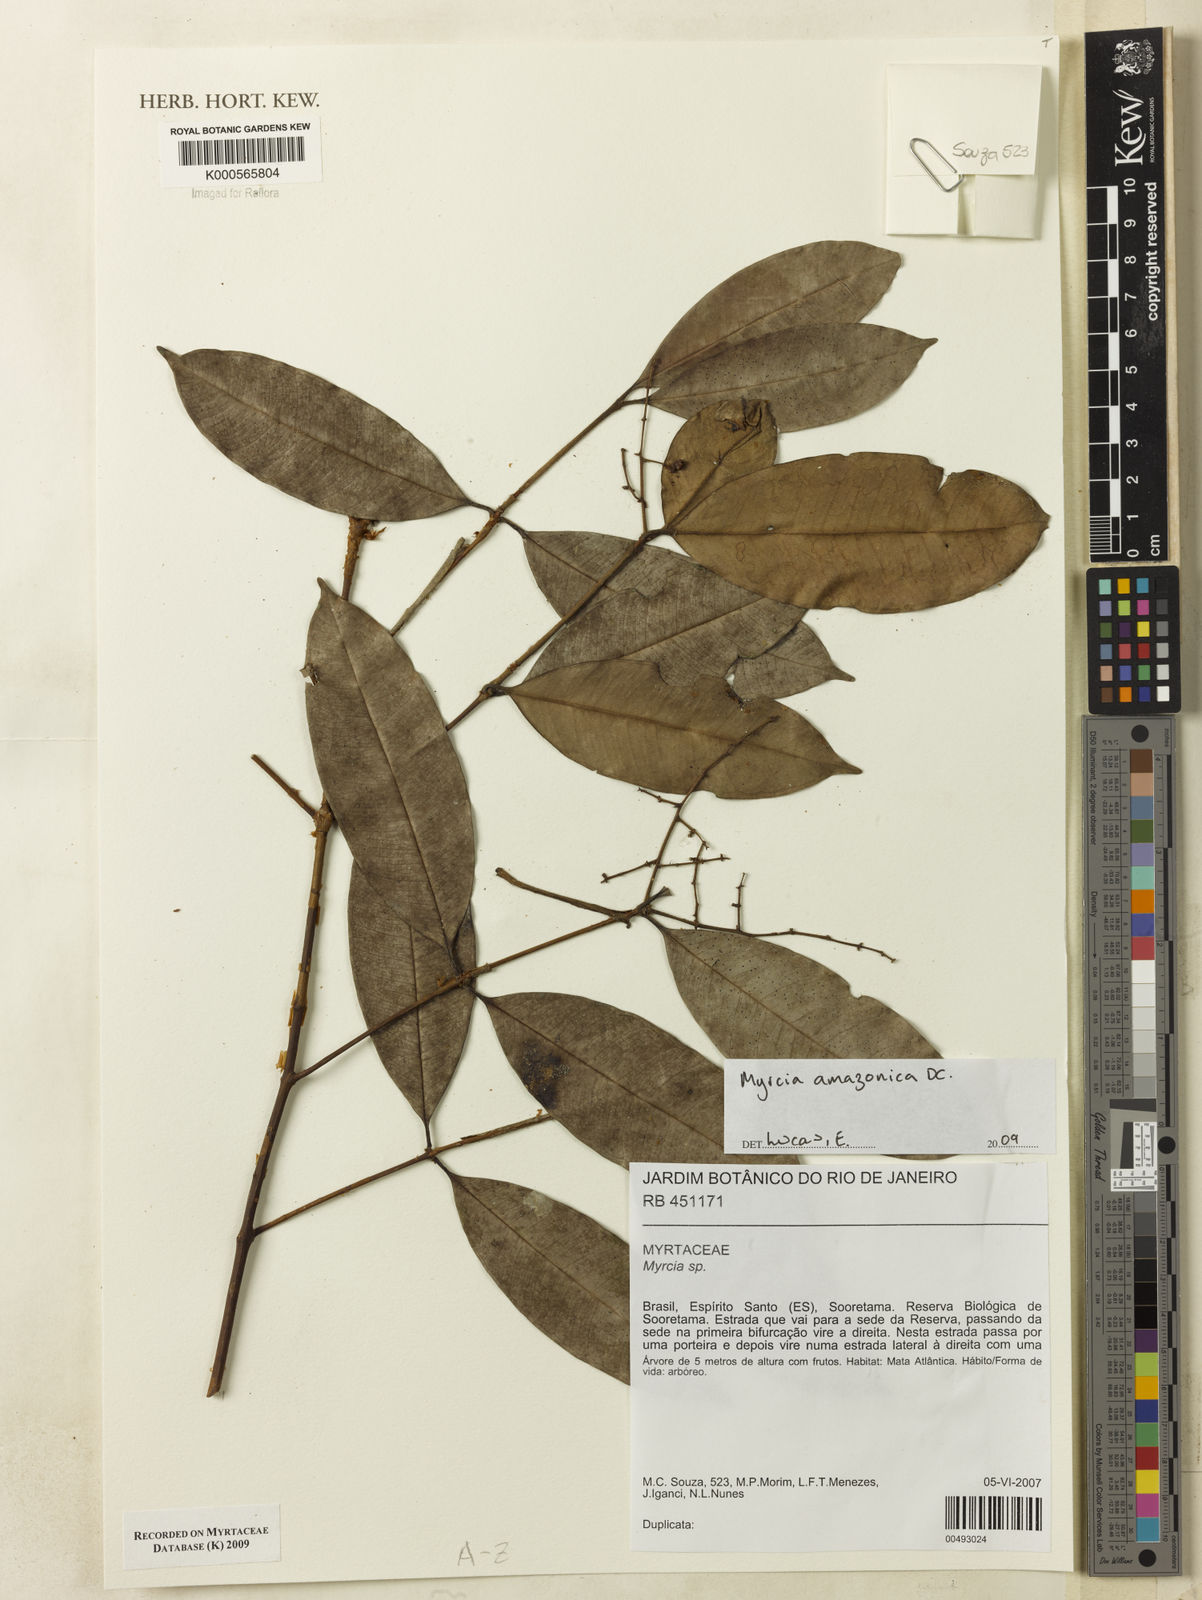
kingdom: Plantae
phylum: Tracheophyta
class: Magnoliopsida
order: Myrtales
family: Myrtaceae
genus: Myrcia
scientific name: Myrcia amazonica
